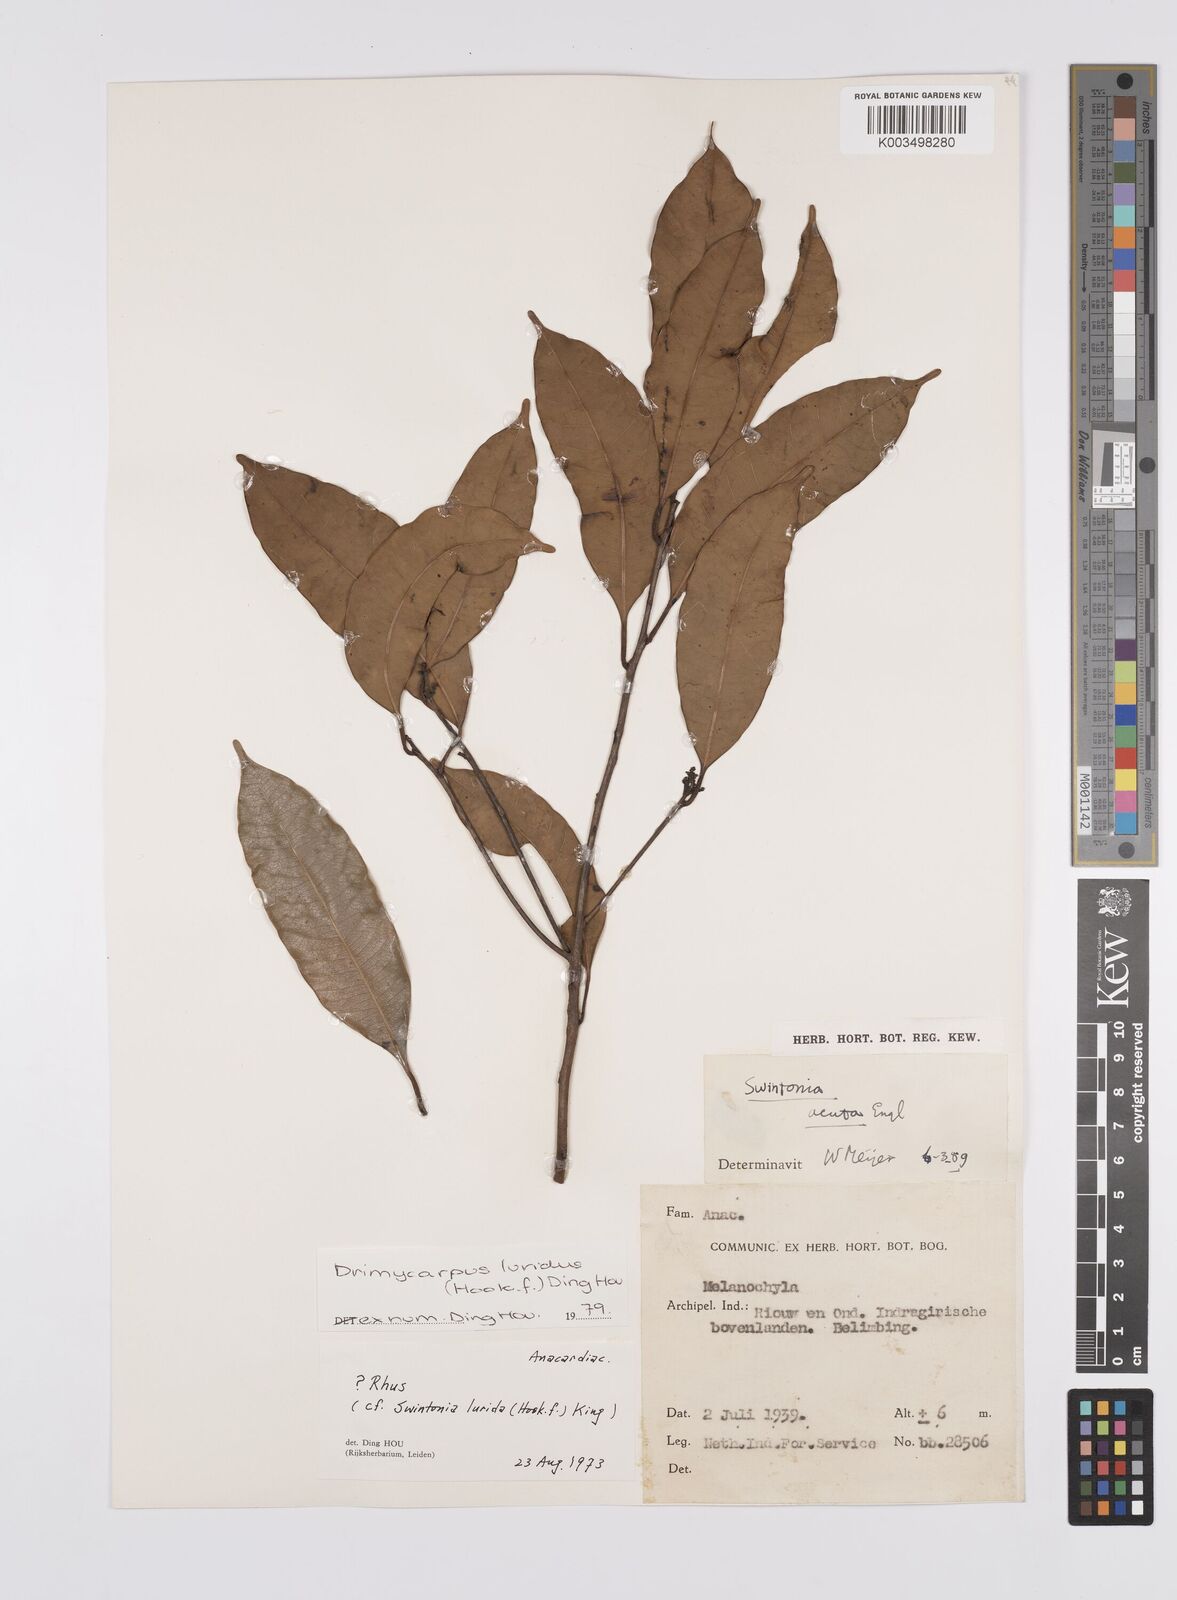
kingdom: Plantae
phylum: Tracheophyta
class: Magnoliopsida
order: Sapindales
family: Anacardiaceae
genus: Drimycarpus
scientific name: Drimycarpus luridus
